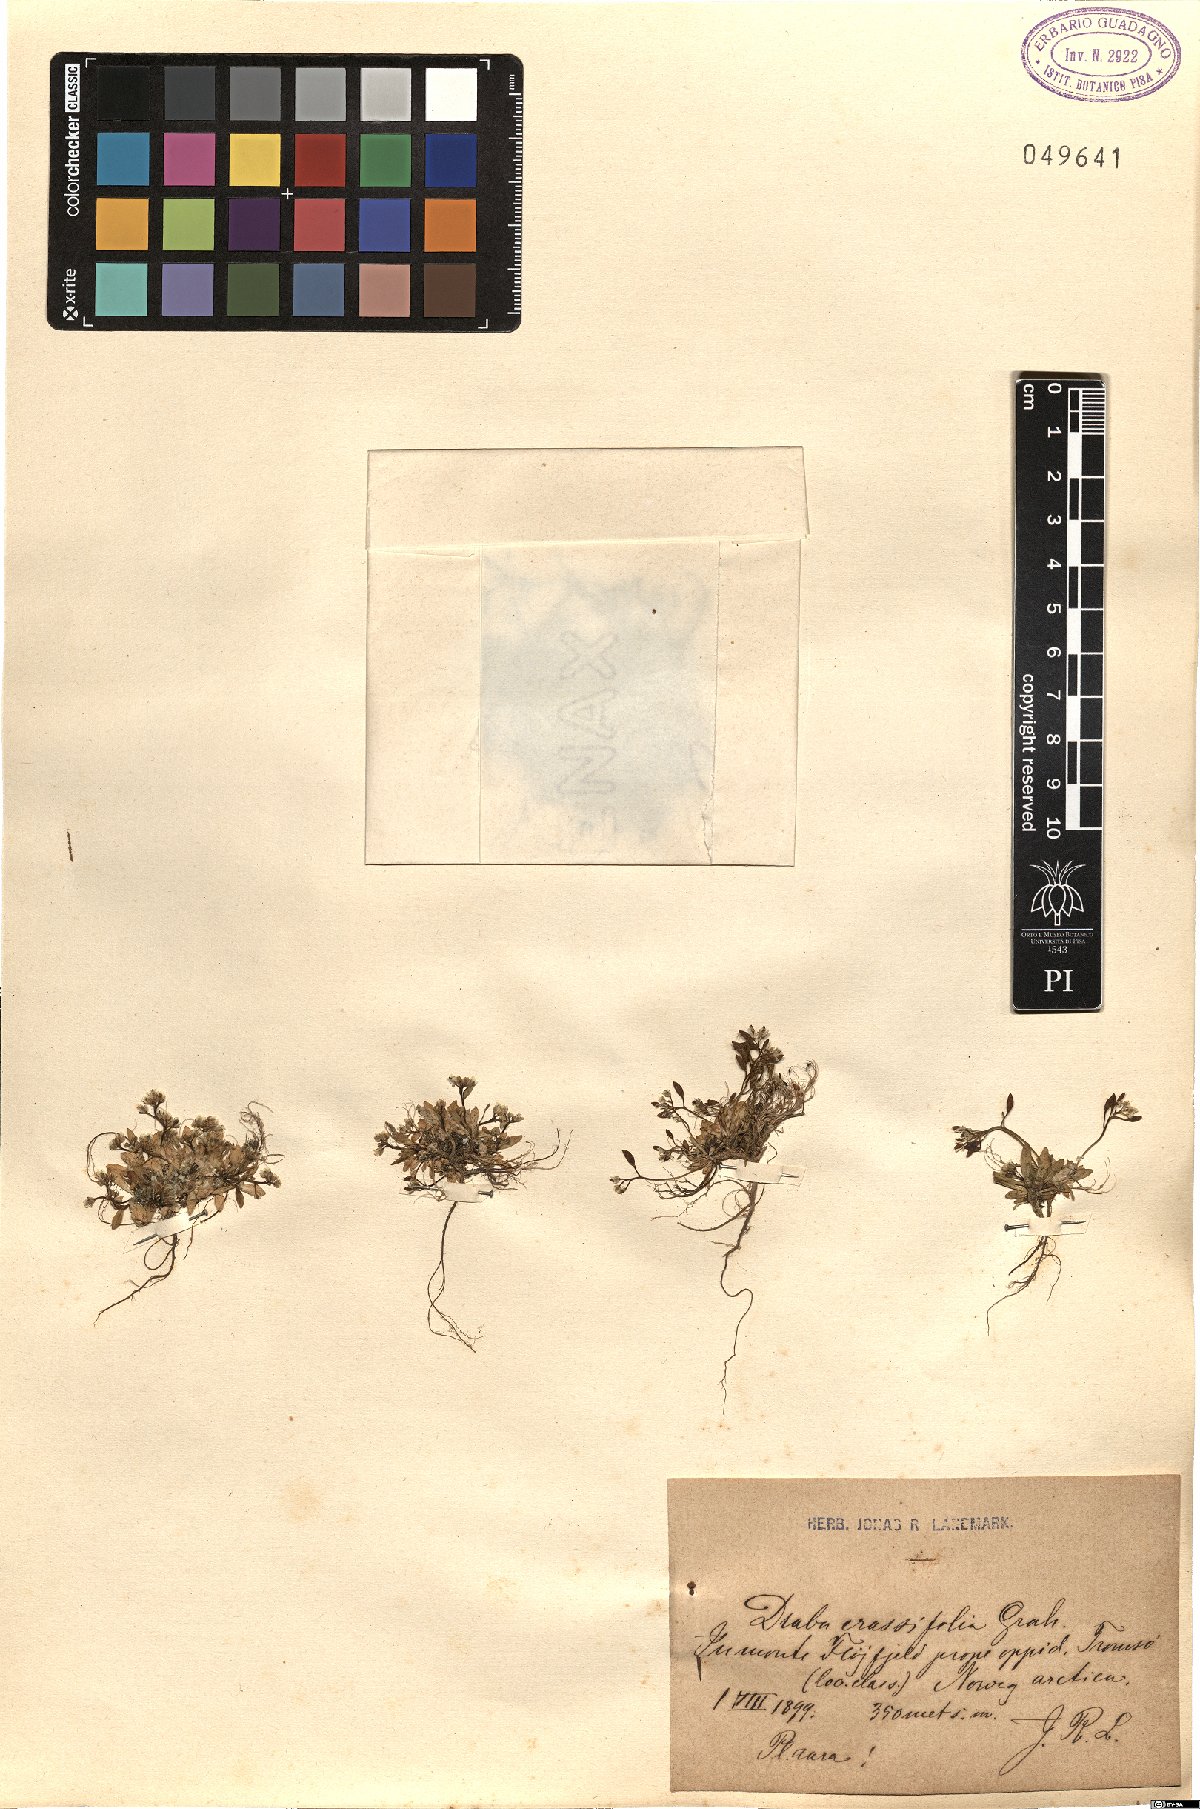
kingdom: Plantae
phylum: Tracheophyta
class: Magnoliopsida
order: Brassicales
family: Brassicaceae
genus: Draba
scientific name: Draba crassifolia
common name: Rocky mountain draba
